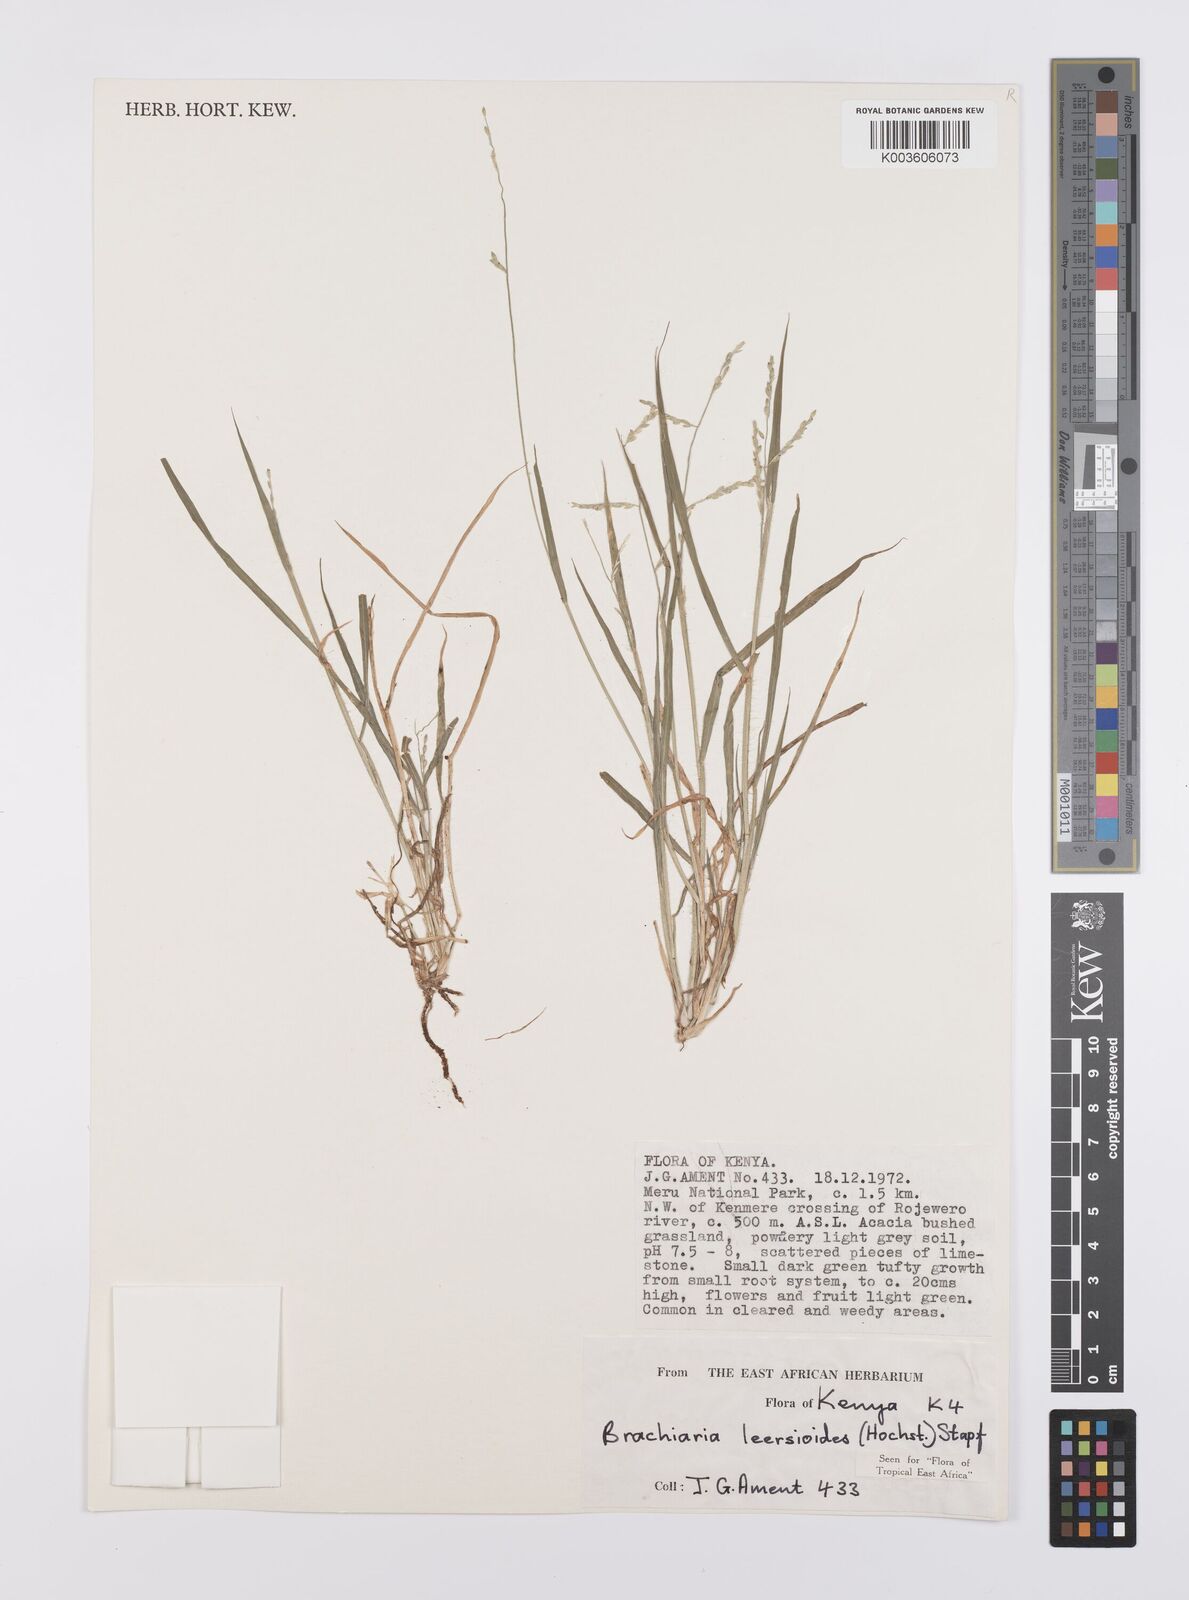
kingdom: Plantae
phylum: Tracheophyta
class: Liliopsida
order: Poales
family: Poaceae
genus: Urochloa
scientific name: Urochloa leersioides
